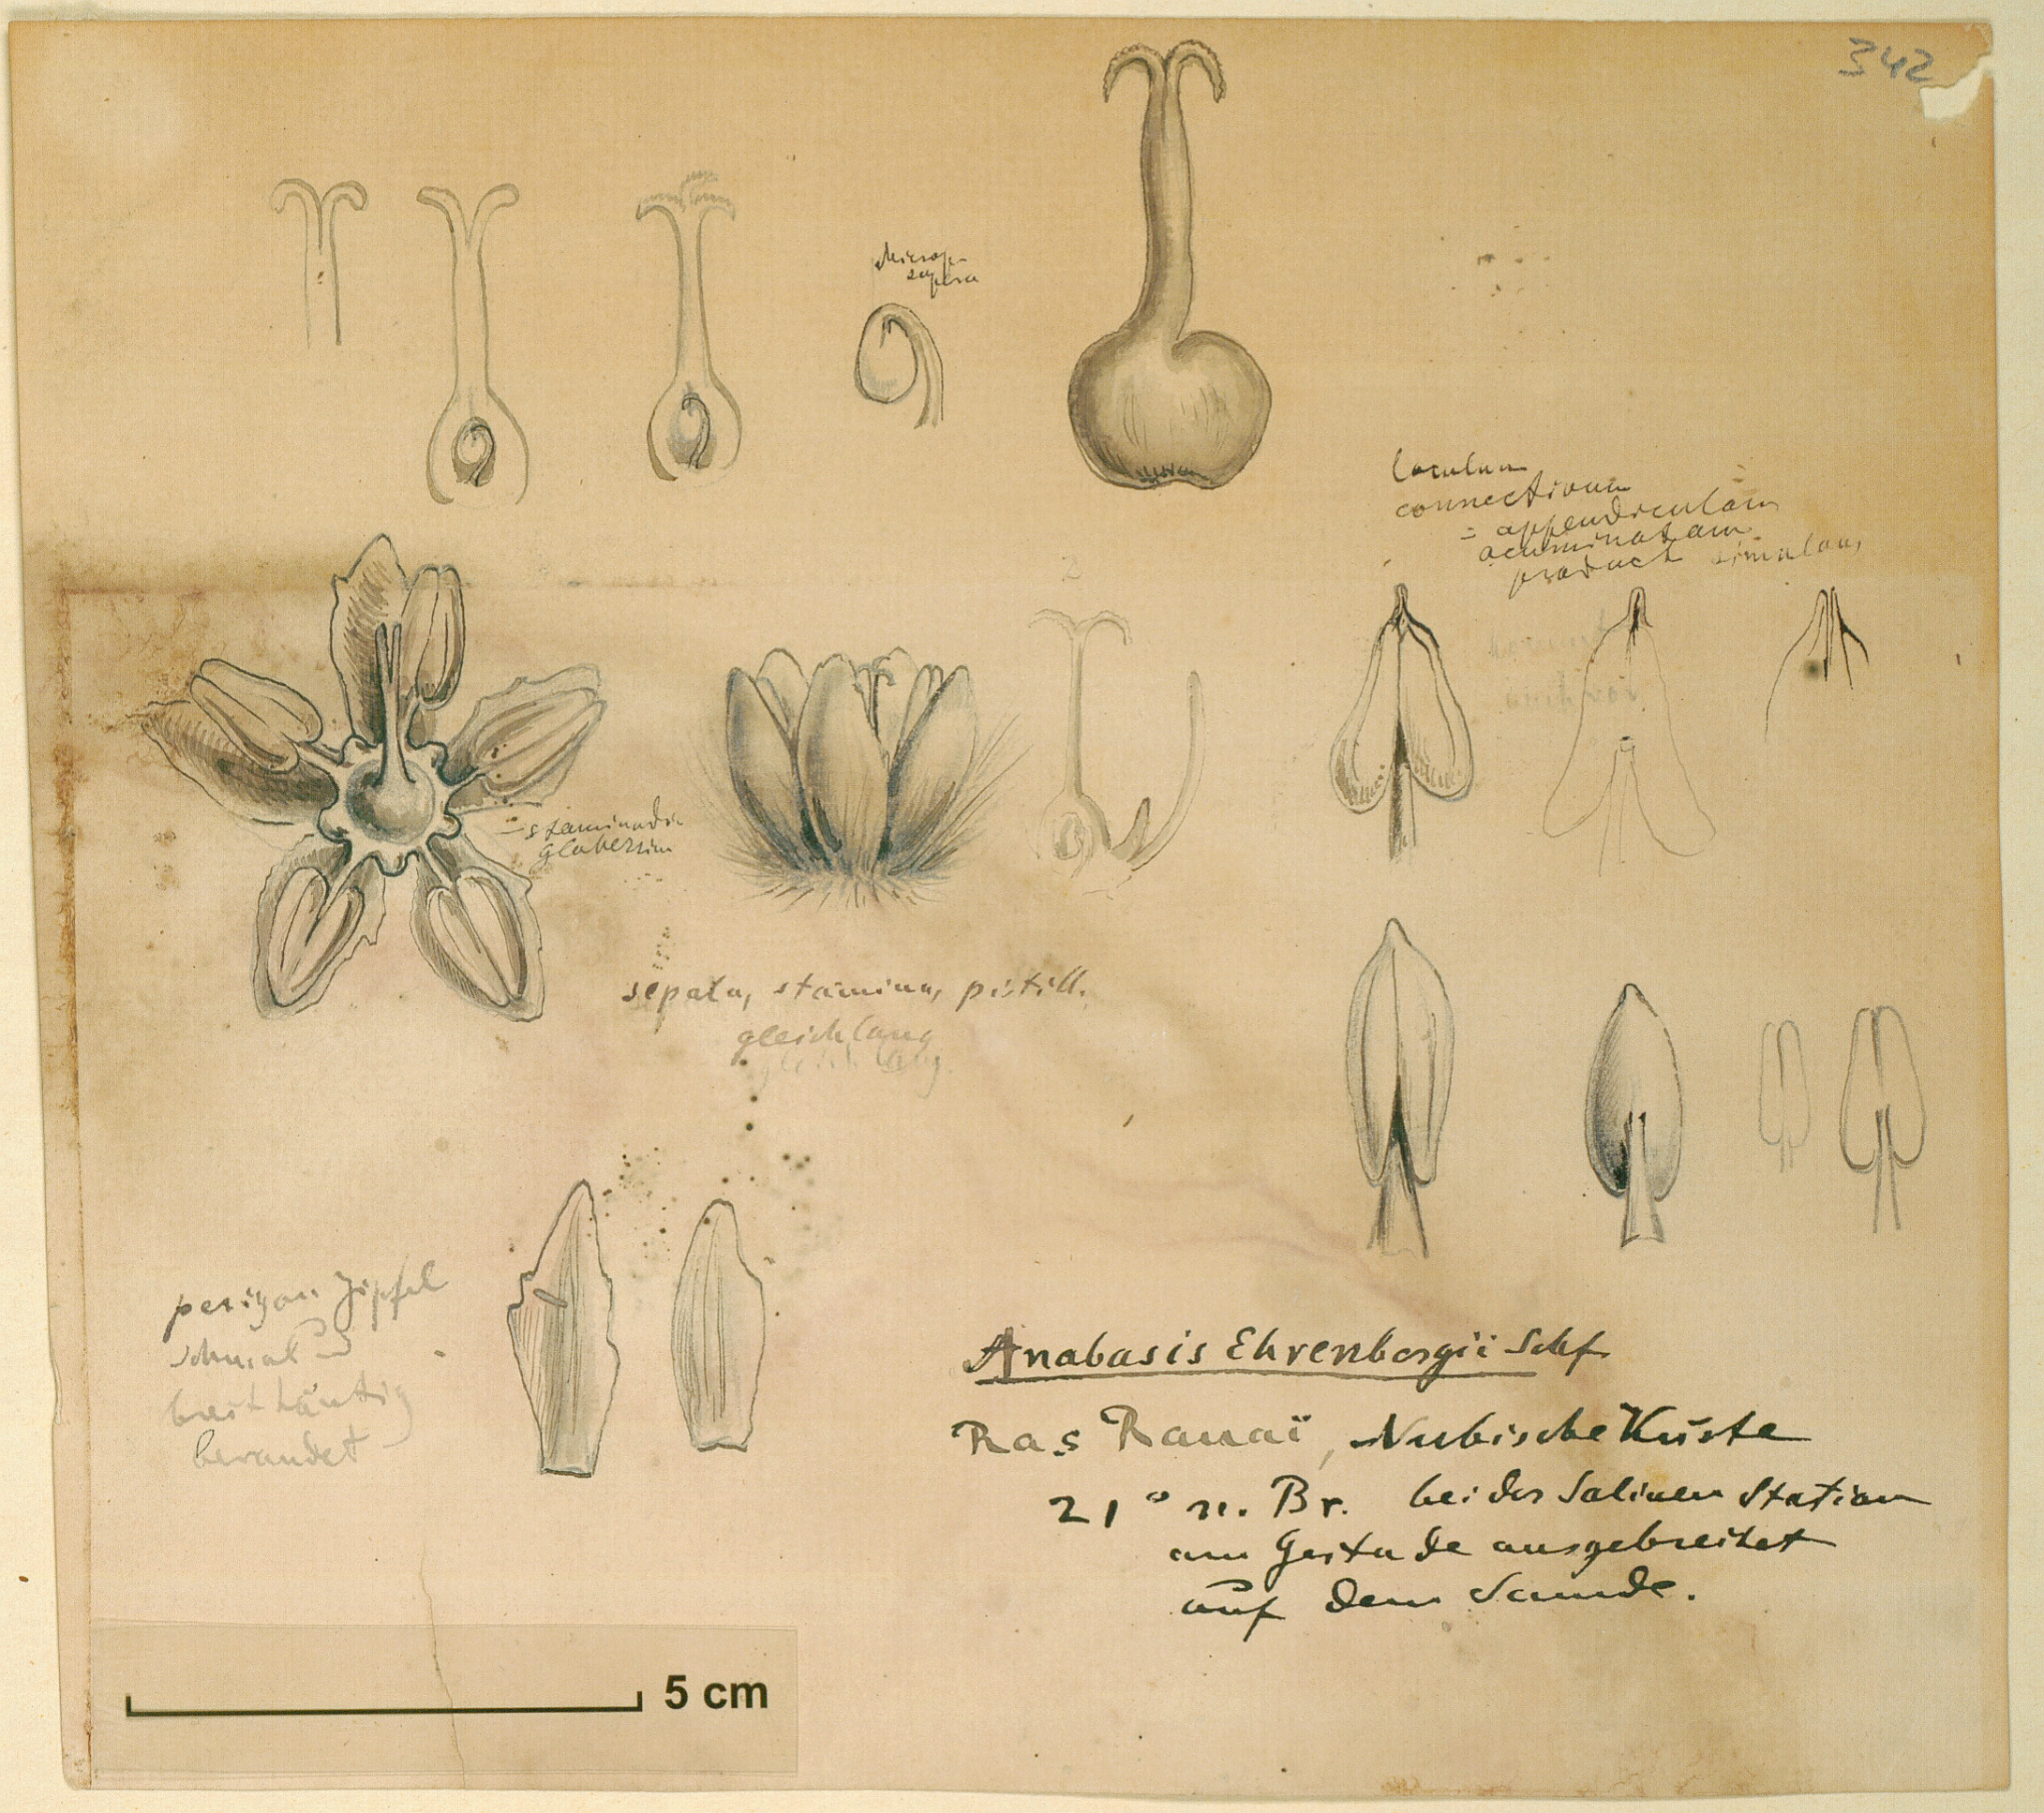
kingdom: Plantae
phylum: Tracheophyta
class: Magnoliopsida
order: Caryophyllales
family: Amaranthaceae
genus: Anabasis
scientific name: Anabasis ehrenbergii
